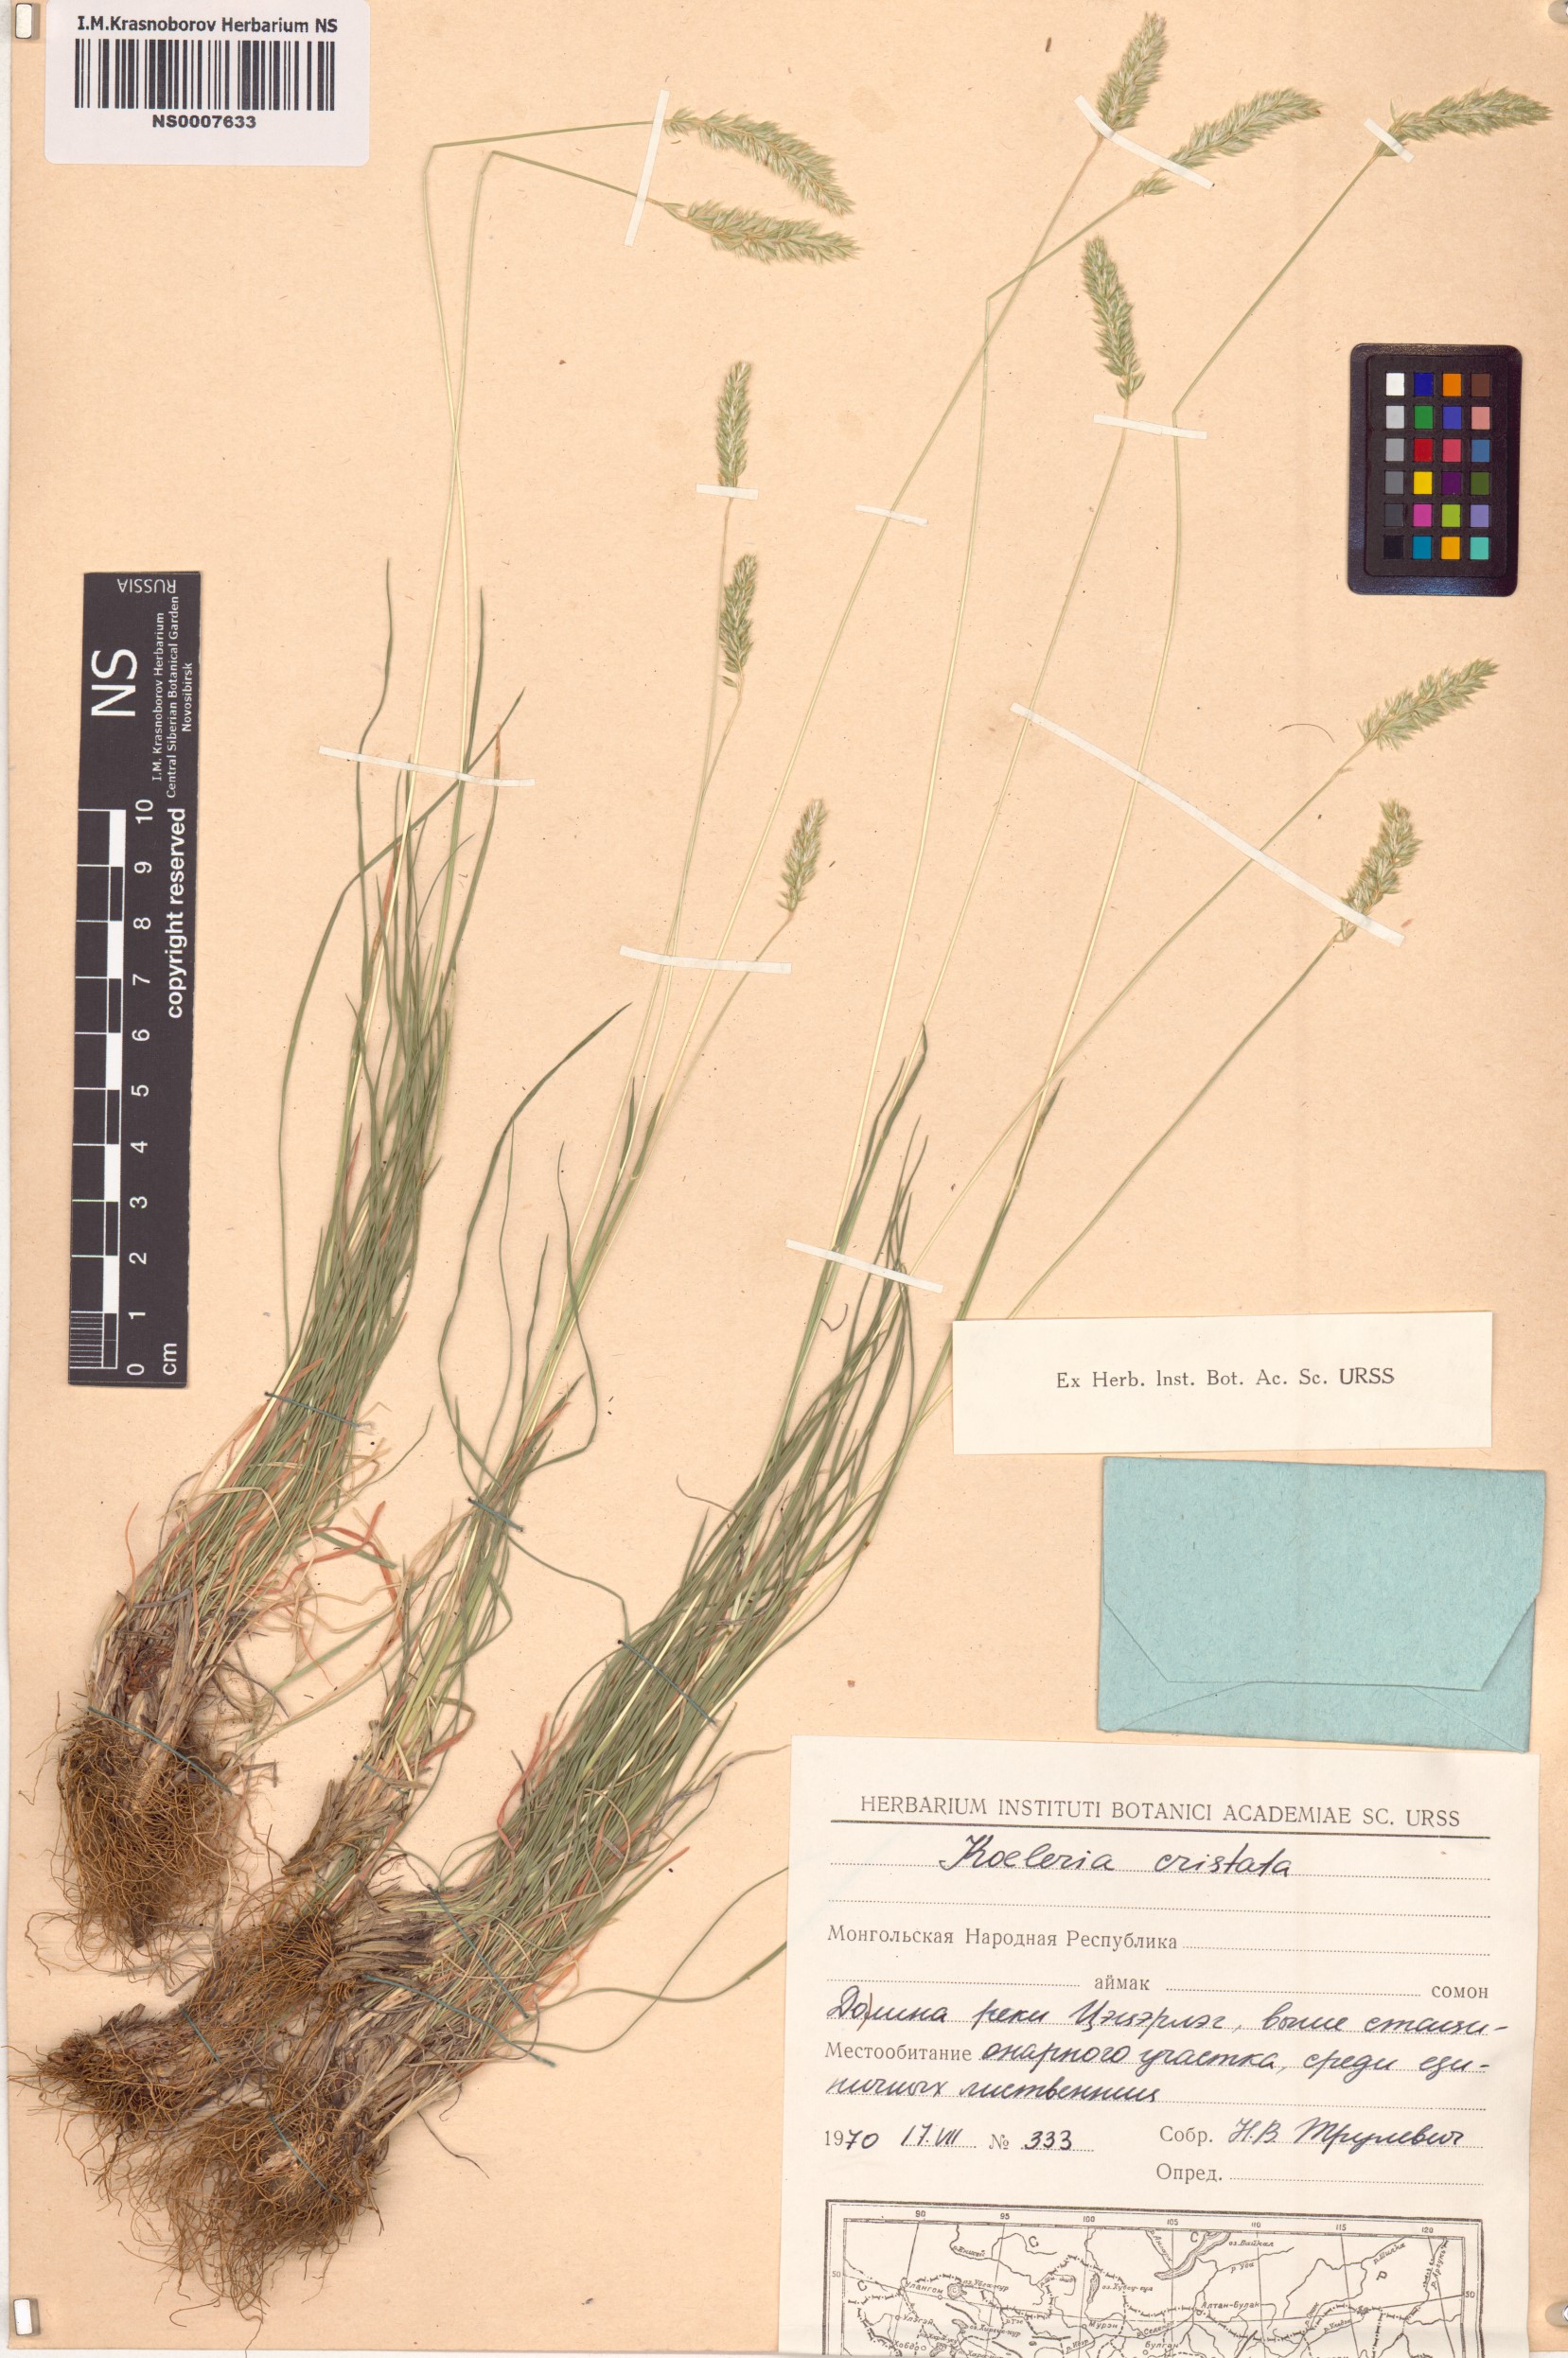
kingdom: Plantae
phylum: Tracheophyta
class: Liliopsida
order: Poales
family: Poaceae
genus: Rostraria
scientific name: Rostraria cristata
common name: Mediterranean hair-grass
